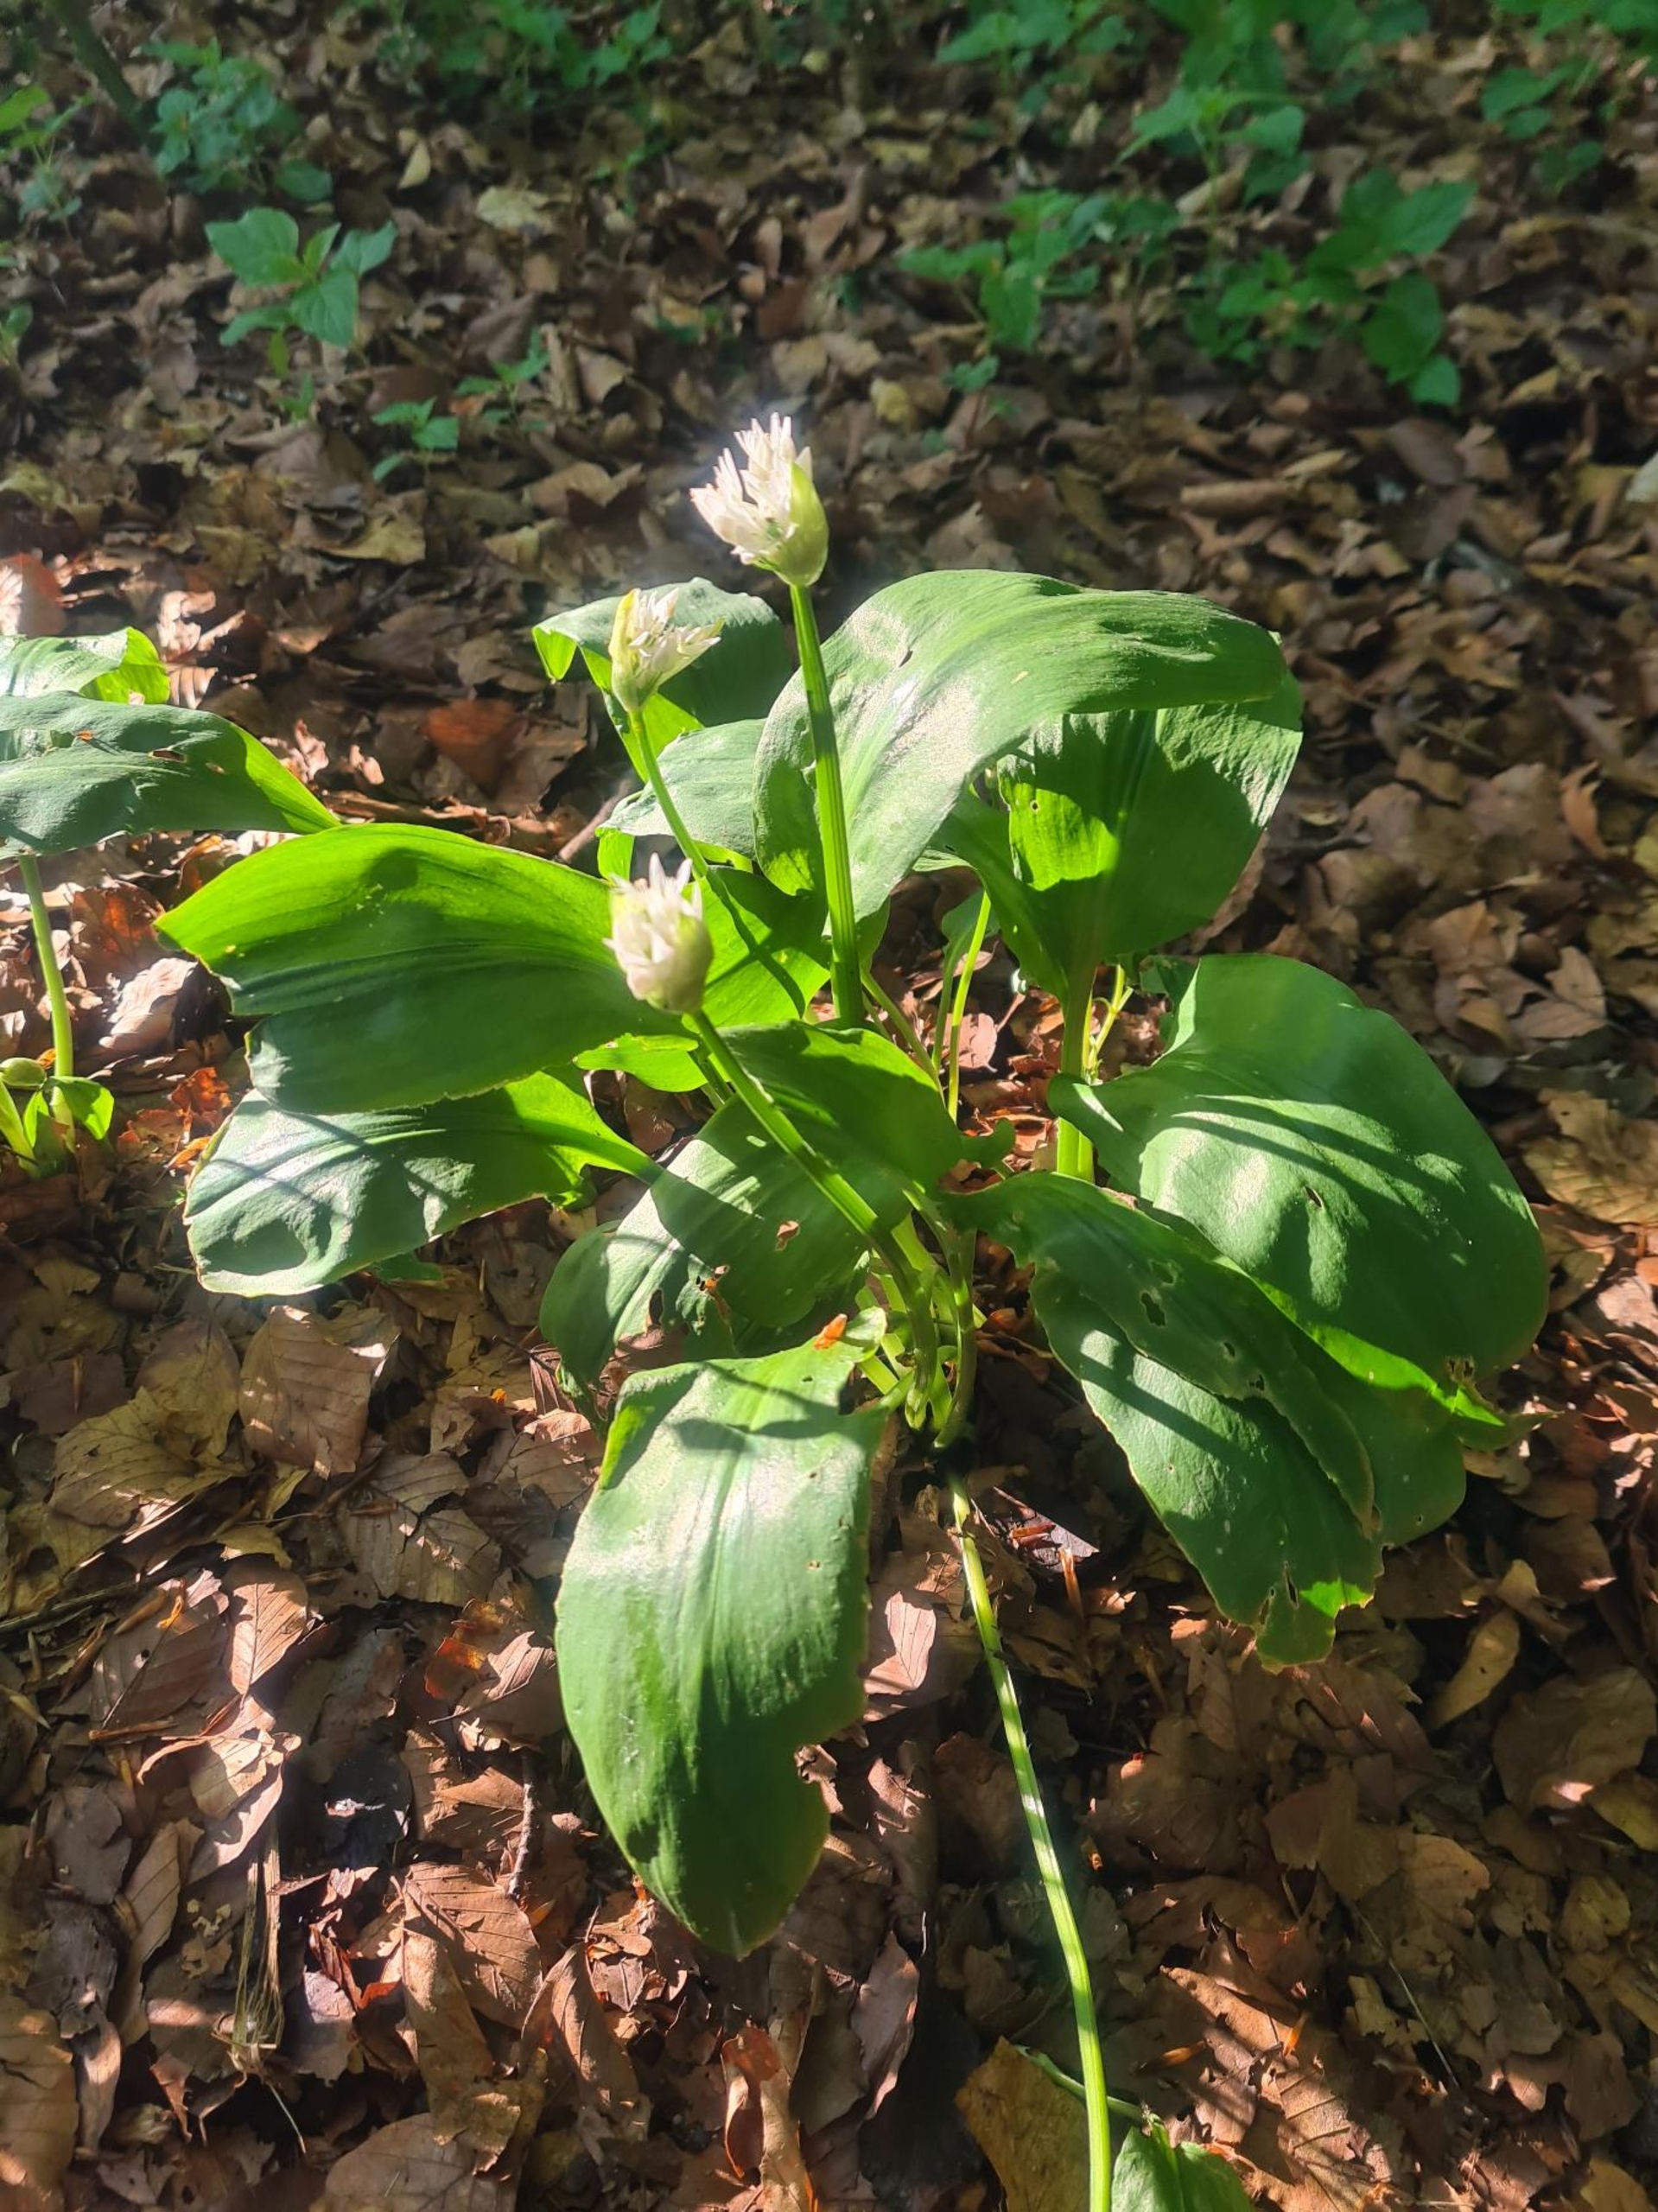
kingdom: Plantae
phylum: Tracheophyta
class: Liliopsida
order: Asparagales
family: Amaryllidaceae
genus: Allium
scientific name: Allium ursinum
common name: Rams-løg
